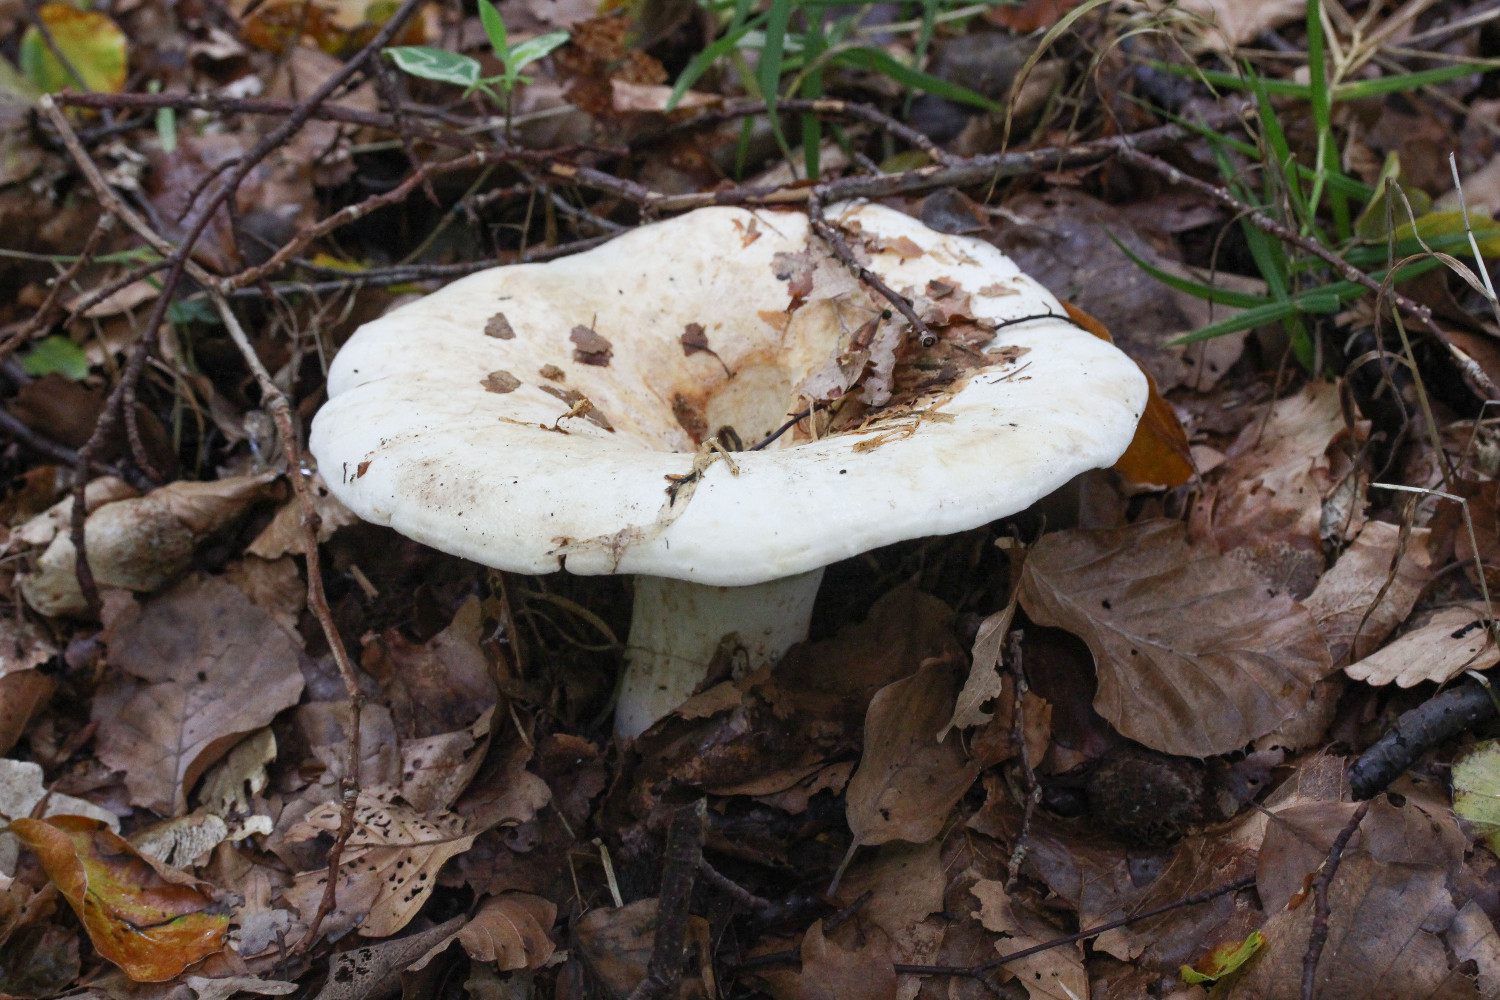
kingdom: Fungi
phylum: Basidiomycota
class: Agaricomycetes
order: Russulales
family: Russulaceae
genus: Lactifluus
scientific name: Lactifluus vellereus
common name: hvidfiltet mælkehat
